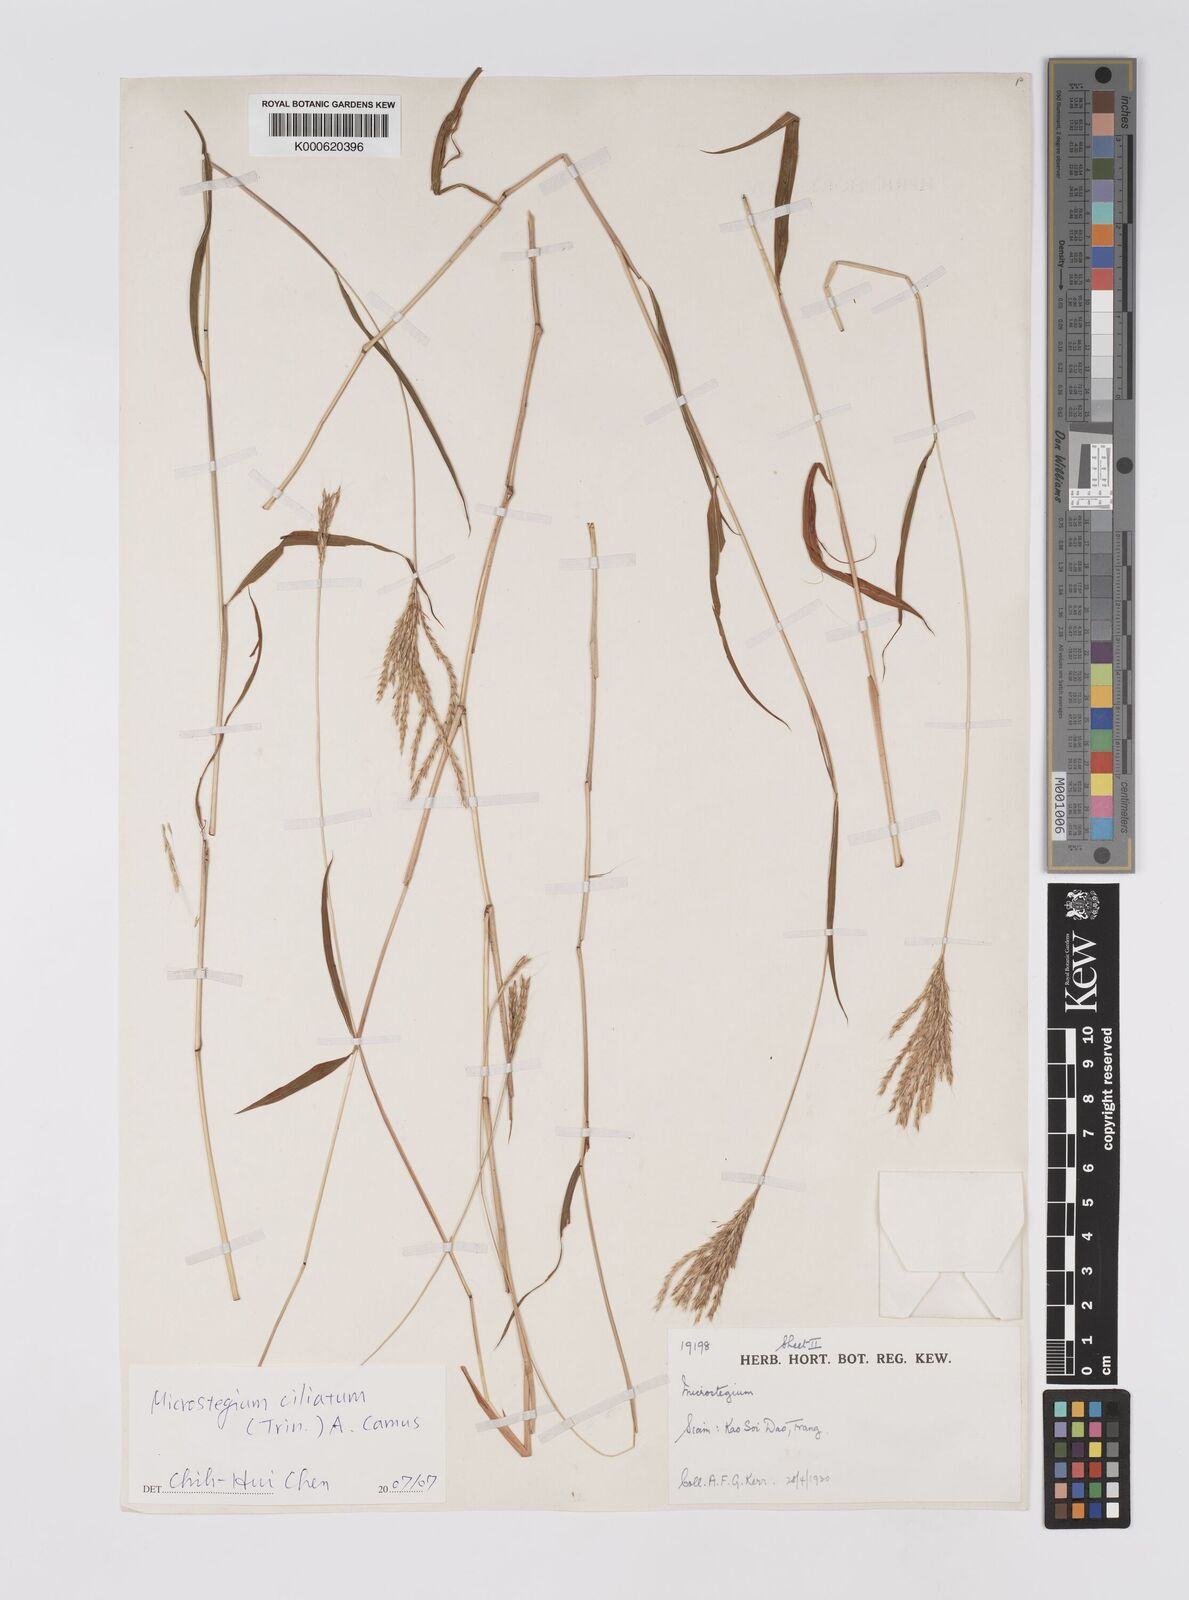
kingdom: Plantae
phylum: Tracheophyta
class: Liliopsida
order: Poales
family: Poaceae
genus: Microstegium
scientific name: Microstegium fasciculatum
